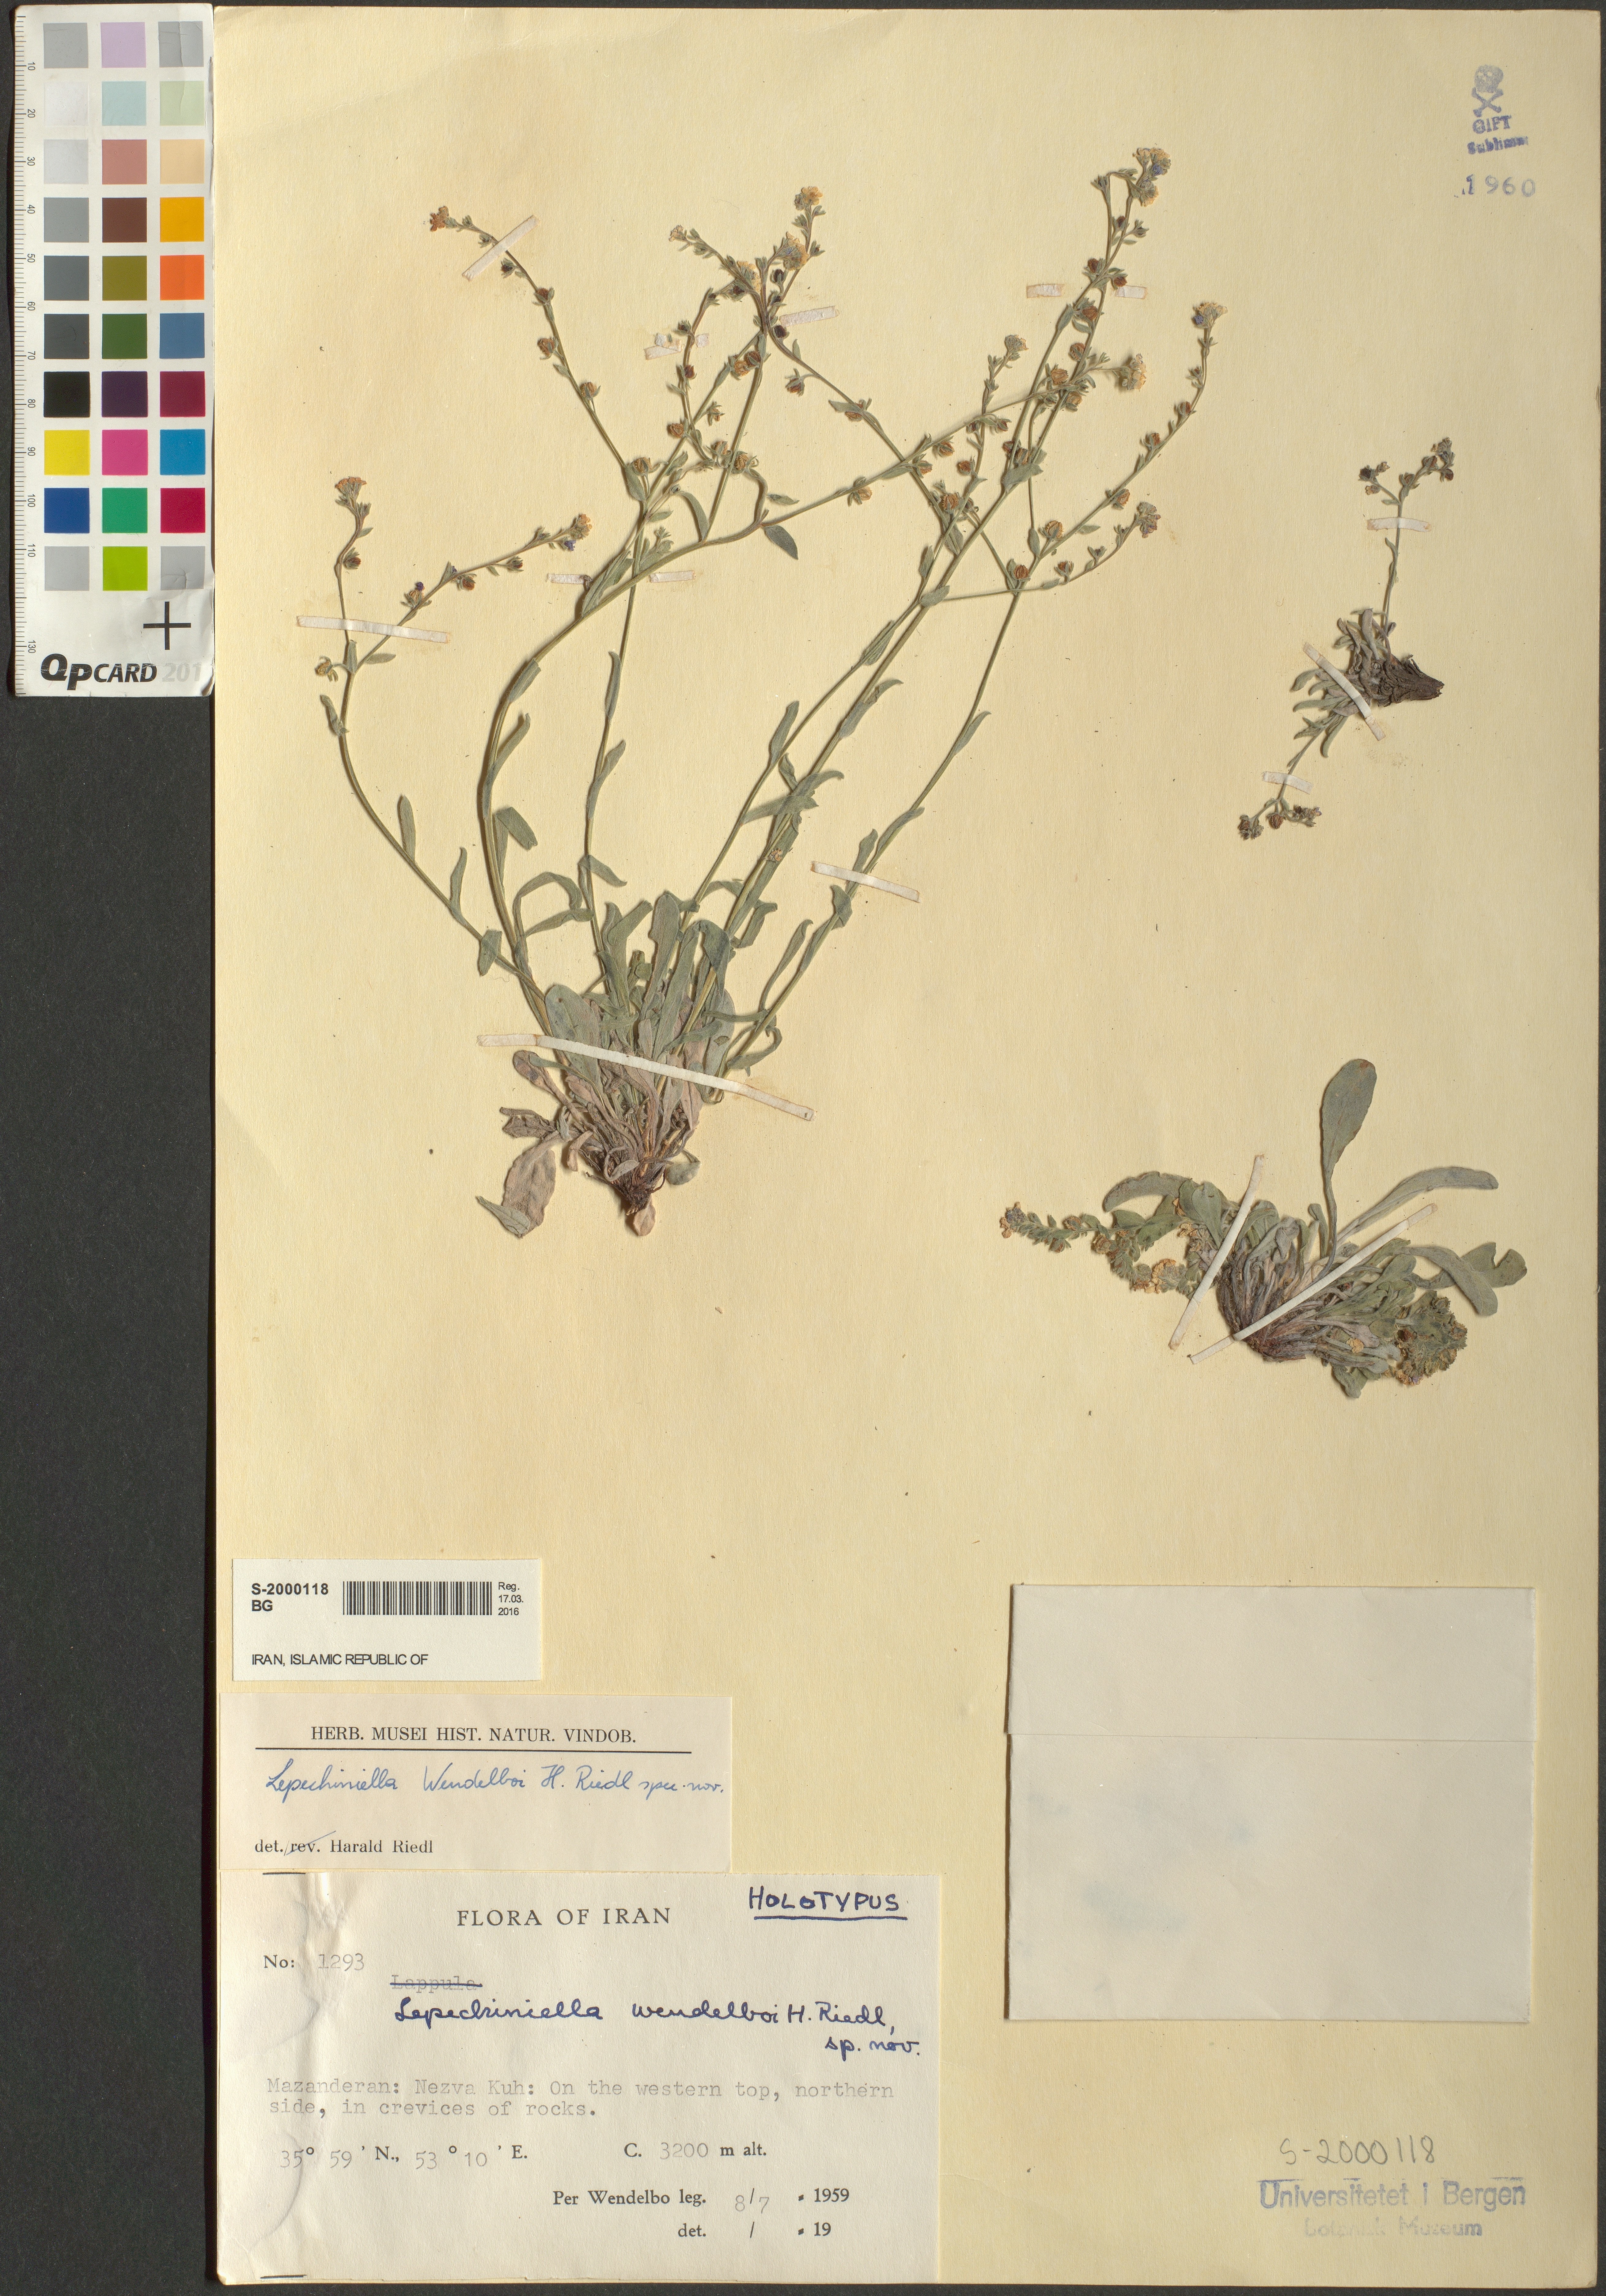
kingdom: Plantae
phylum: Tracheophyta
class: Magnoliopsida
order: Boraginales
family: Boraginaceae
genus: Lepechiniella
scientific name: Lepechiniella persica
